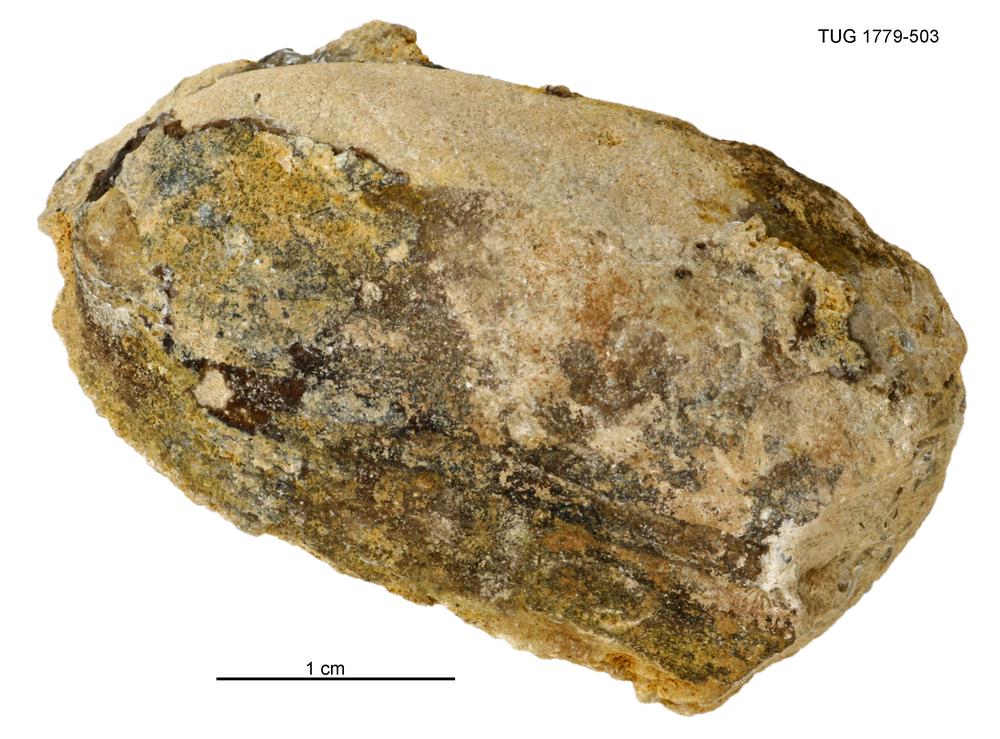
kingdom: Animalia
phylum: Mollusca
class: Bivalvia
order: Modiomorphida
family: Modiomorphidae
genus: Modiolopsis
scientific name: Modiolopsis
